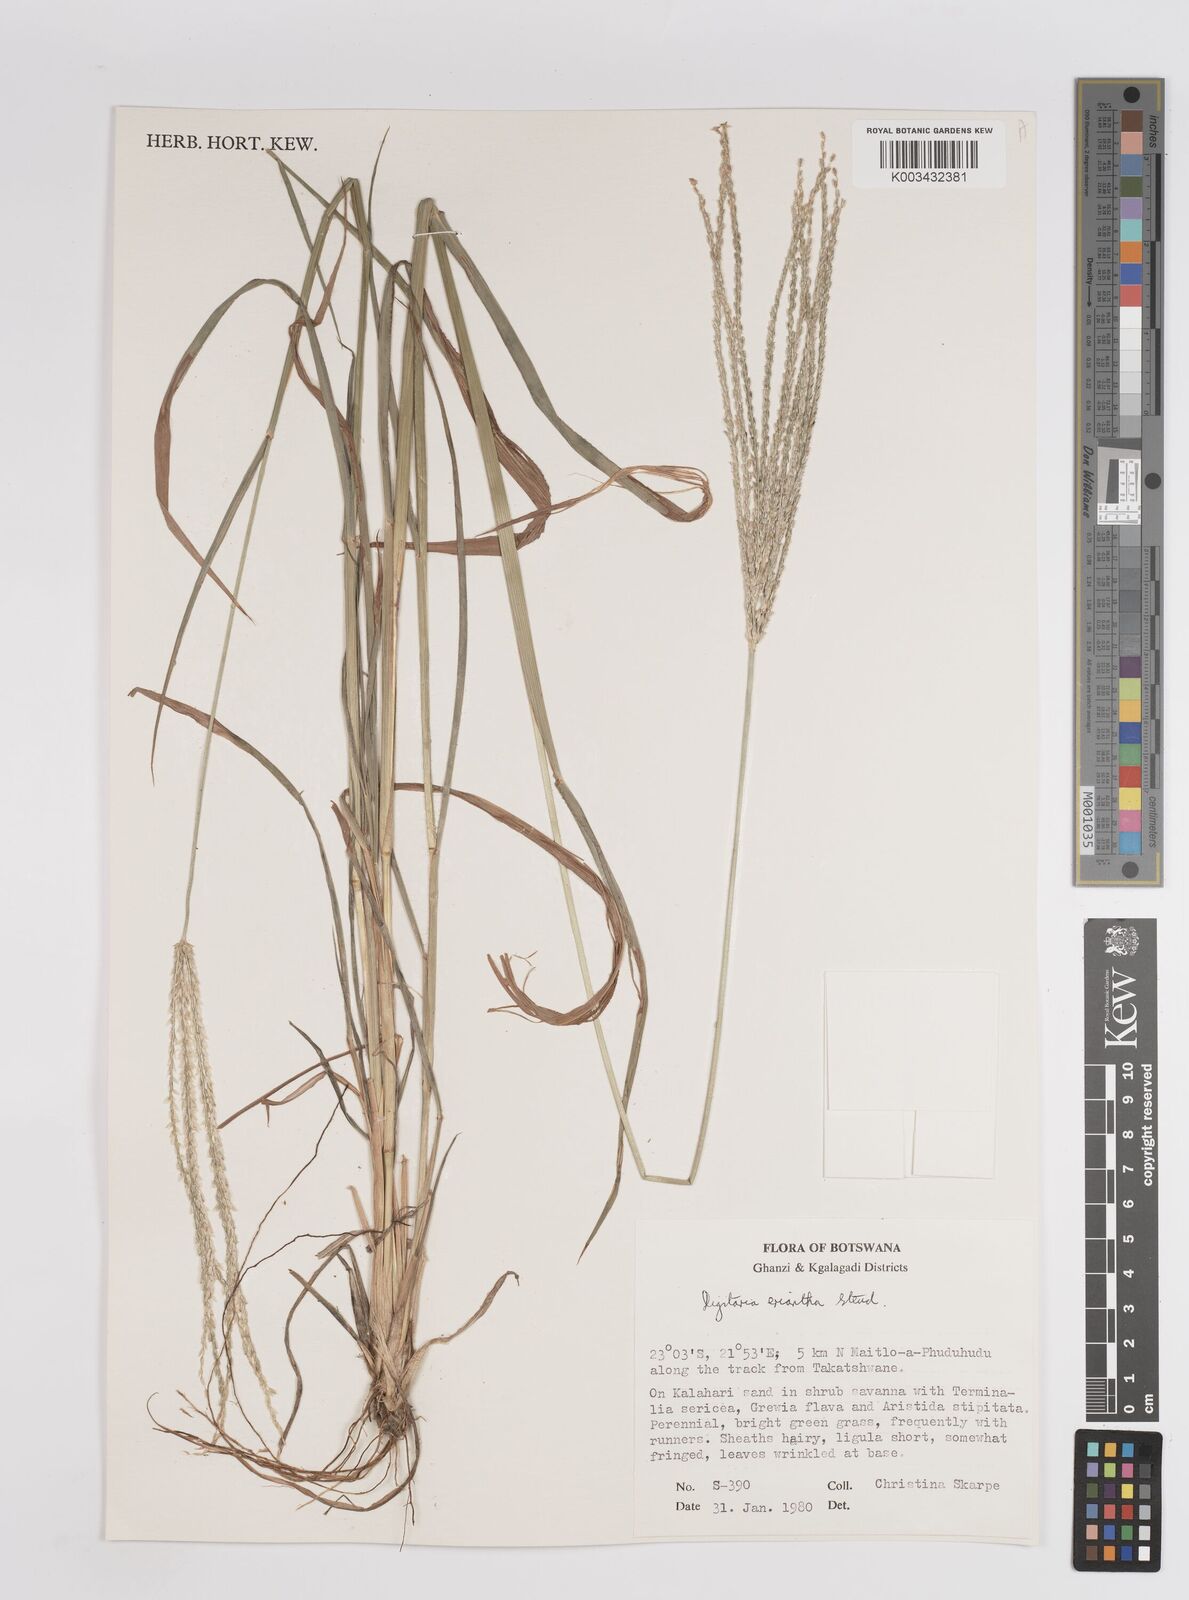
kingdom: Plantae
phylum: Tracheophyta
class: Liliopsida
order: Poales
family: Poaceae
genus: Digitaria
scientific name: Digitaria eriantha
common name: Digitgrass
